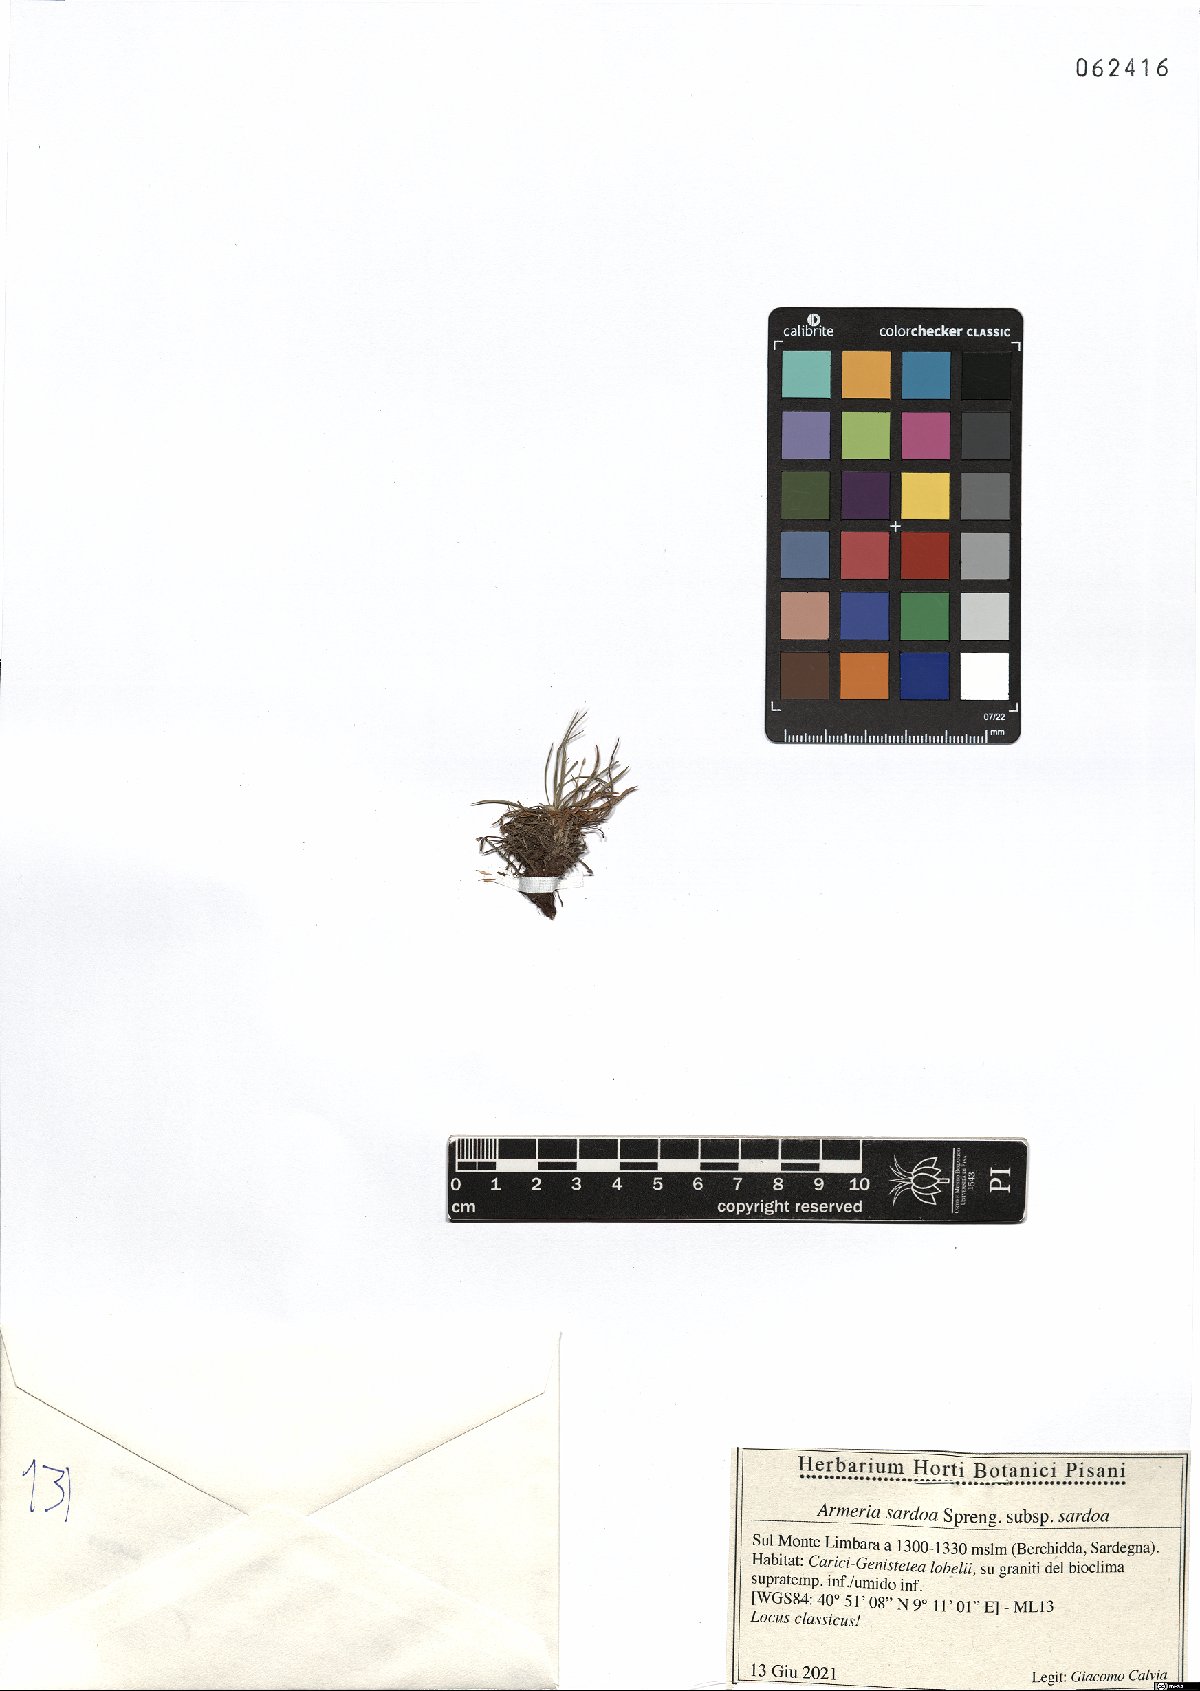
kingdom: Plantae
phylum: Tracheophyta
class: Magnoliopsida
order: Caryophyllales
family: Plumbaginaceae
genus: Armeria
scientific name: Armeria sardoa
